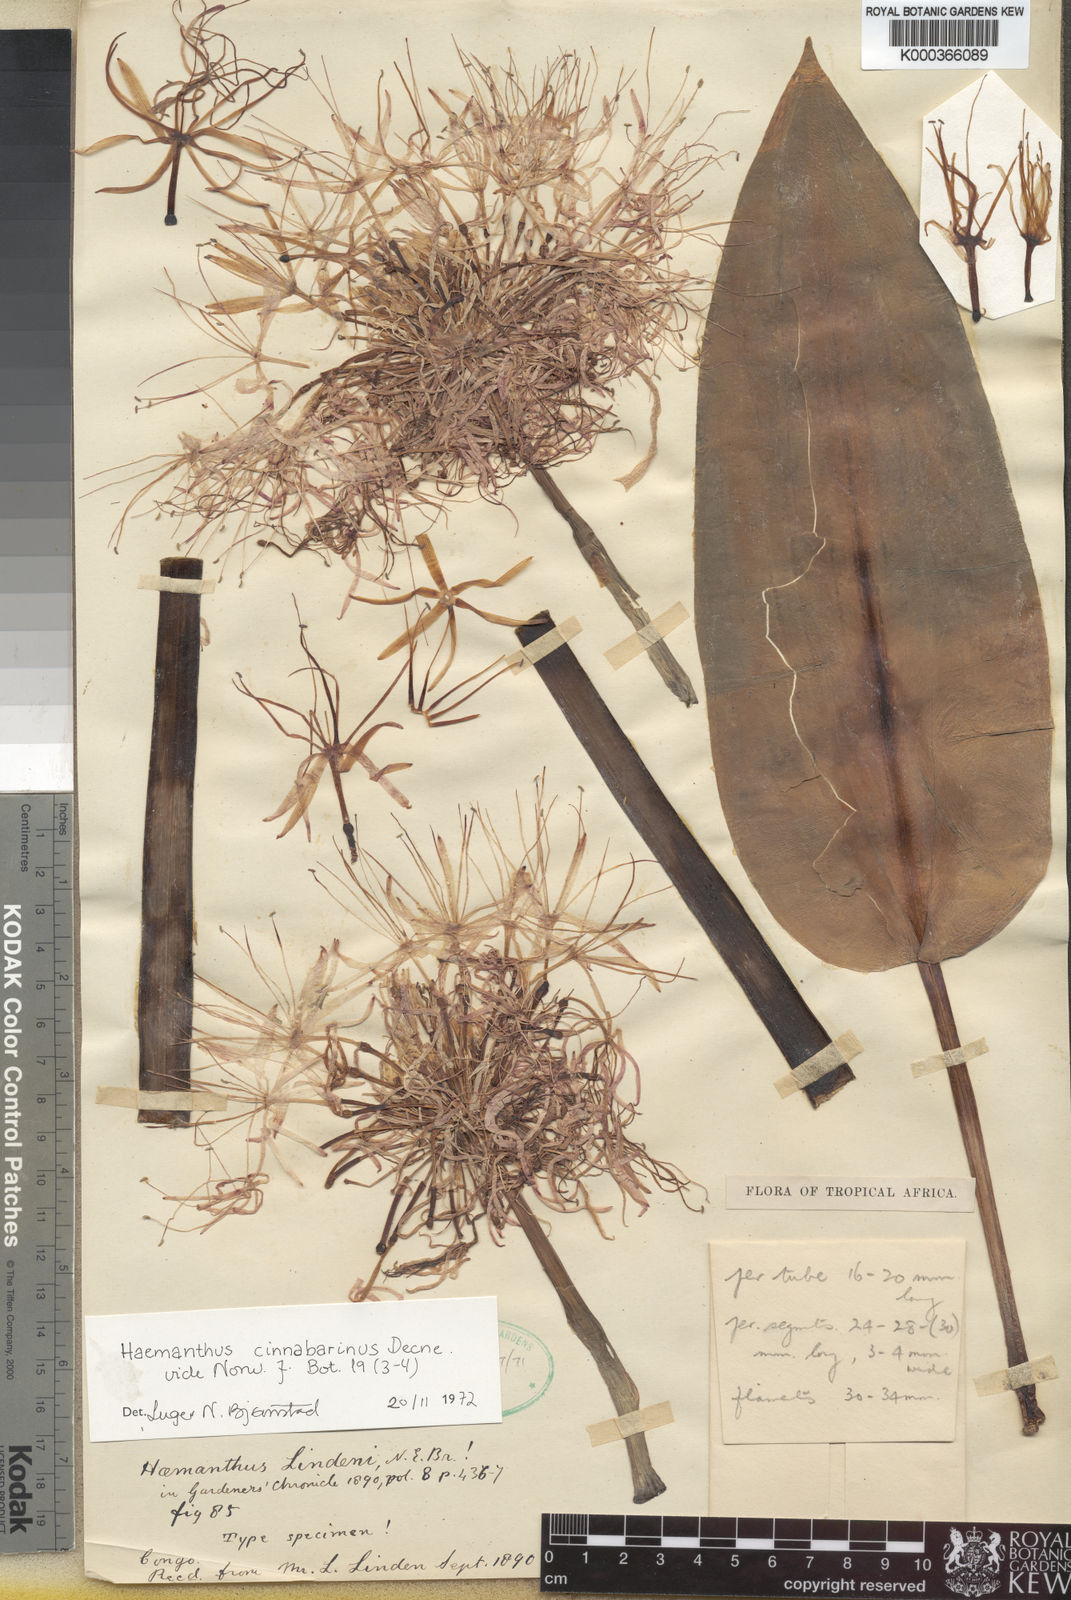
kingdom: Plantae
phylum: Tracheophyta
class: Liliopsida
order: Asparagales
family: Amaryllidaceae
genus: Scadoxus
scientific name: Scadoxus cinnabarinus
